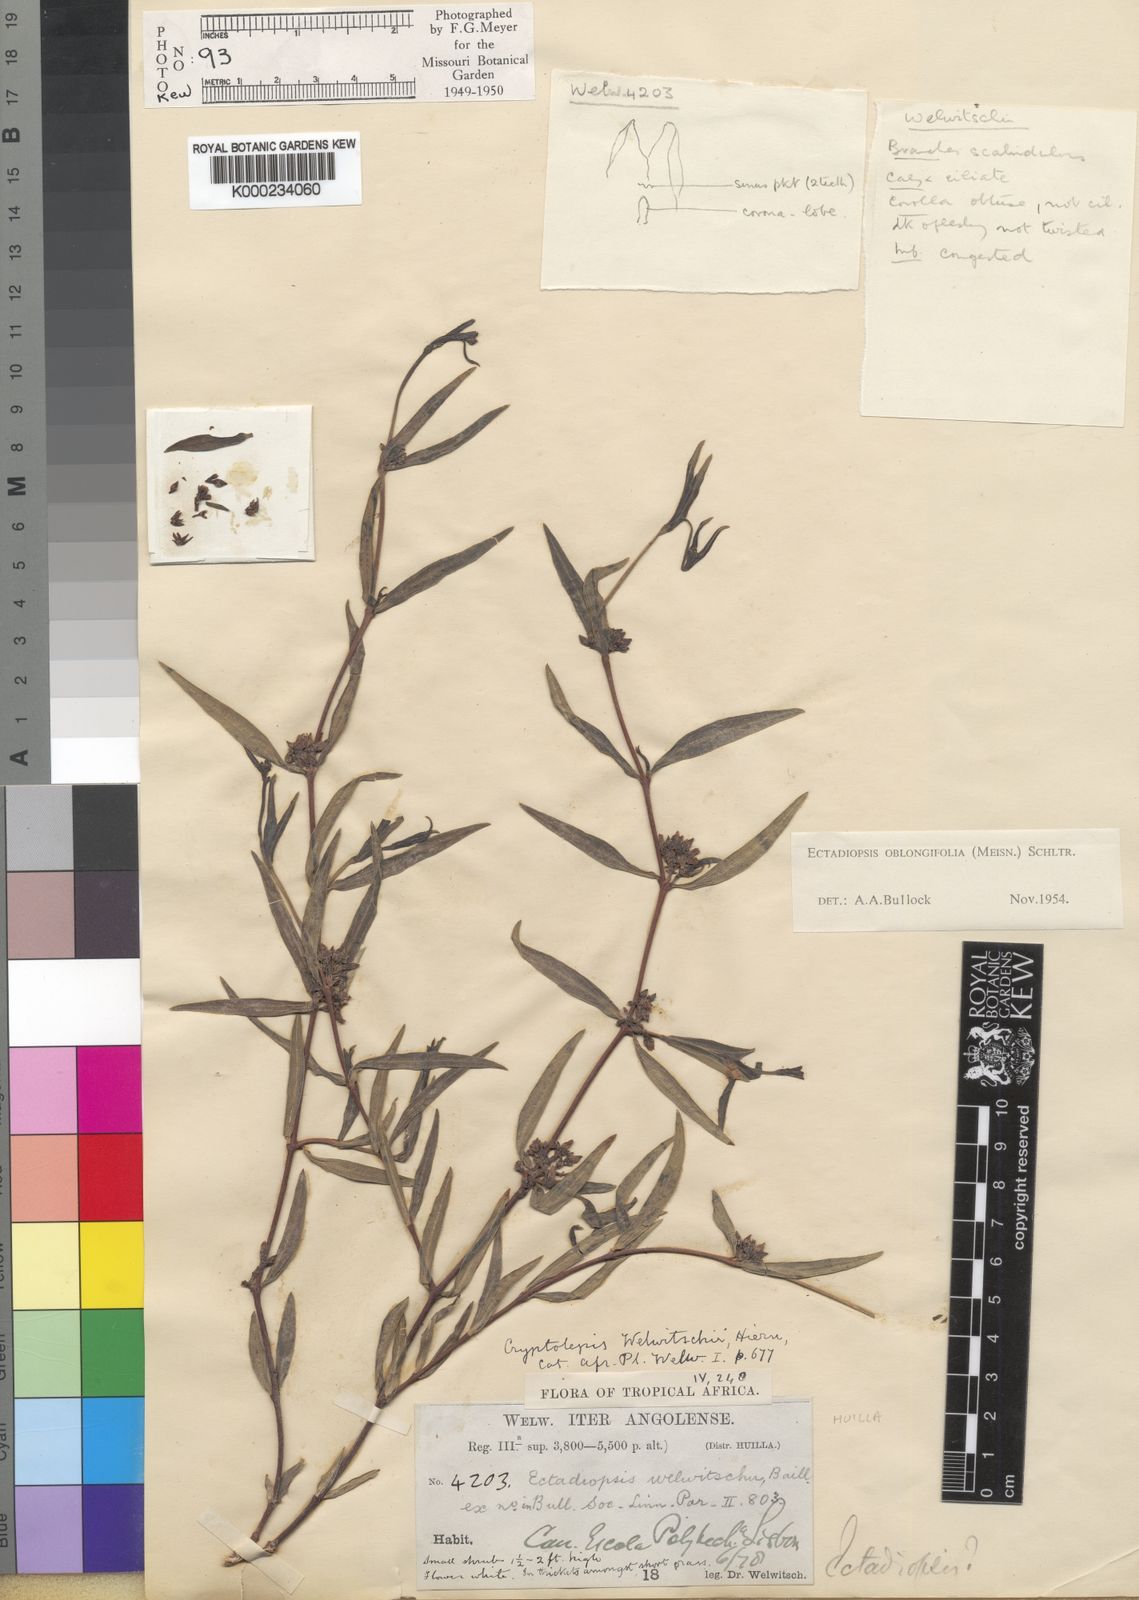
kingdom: Plantae
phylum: Tracheophyta
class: Magnoliopsida
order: Gentianales
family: Apocynaceae
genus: Cryptolepis
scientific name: Cryptolepis oblongifolia
